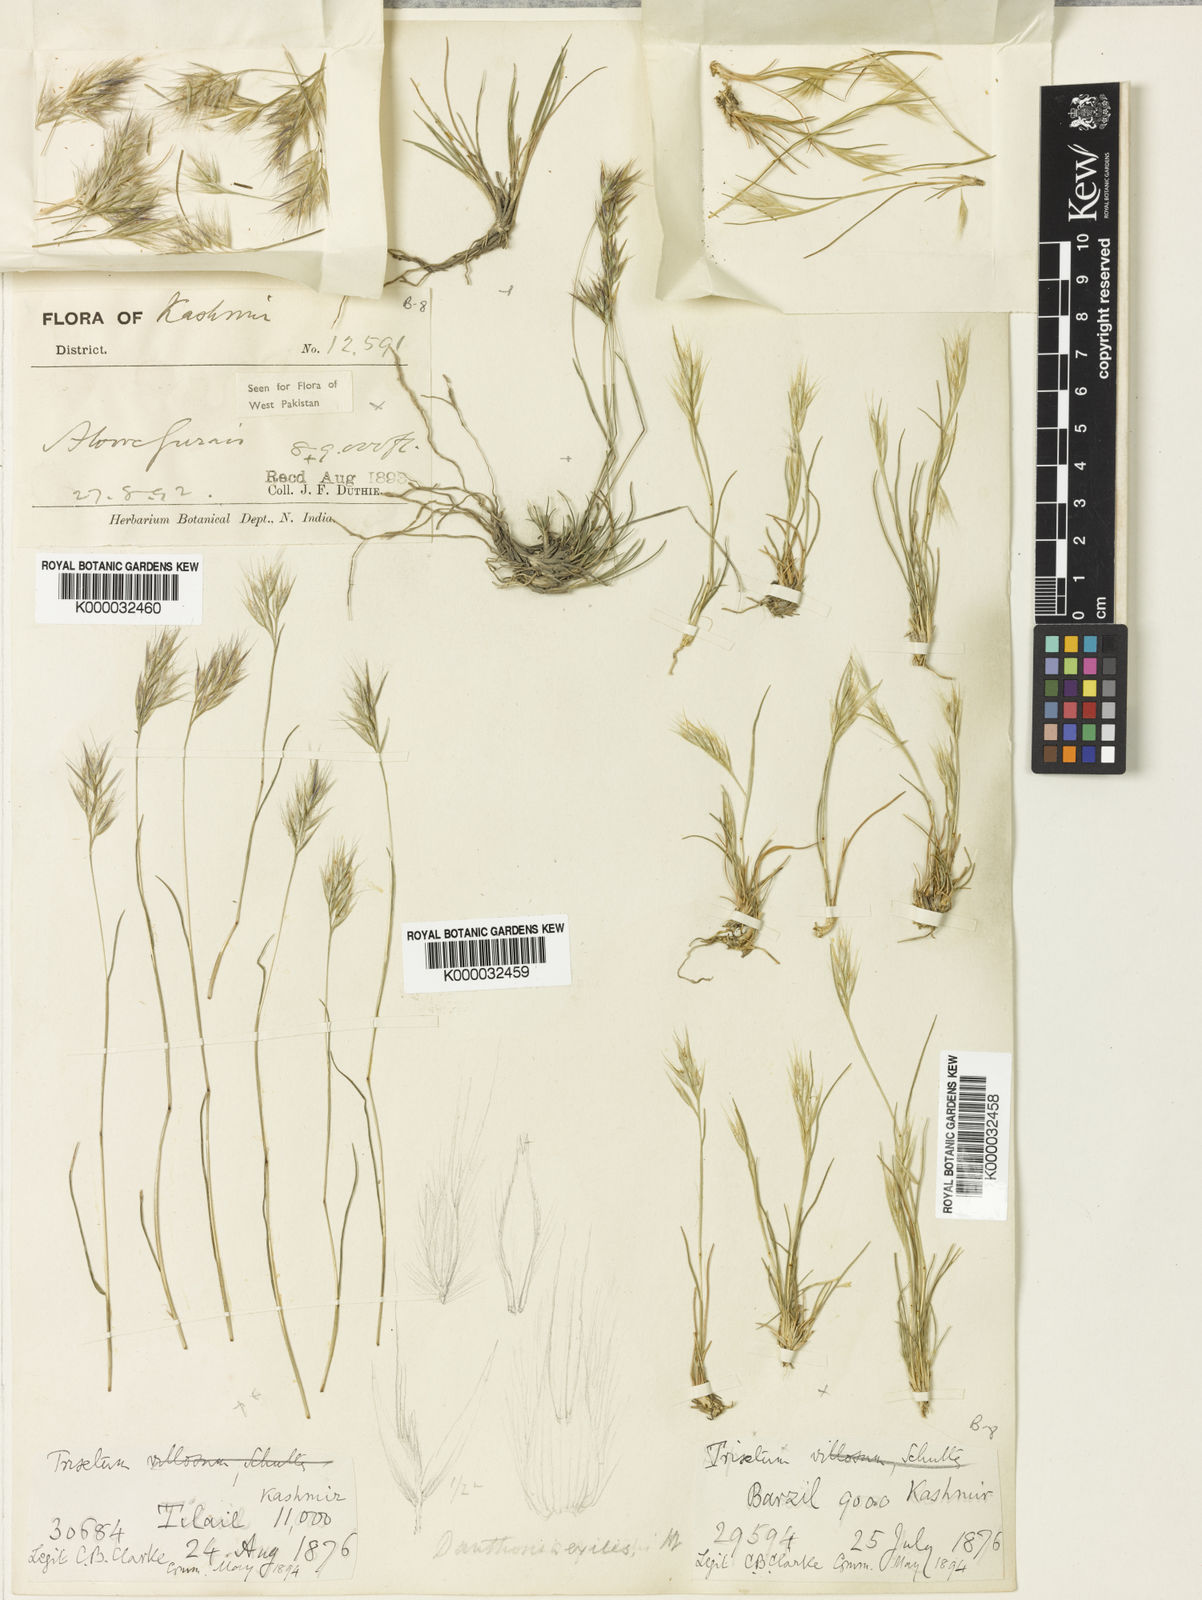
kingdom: Plantae
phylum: Tracheophyta
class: Liliopsida
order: Poales
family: Poaceae
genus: Rytidosperma
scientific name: Rytidosperma
